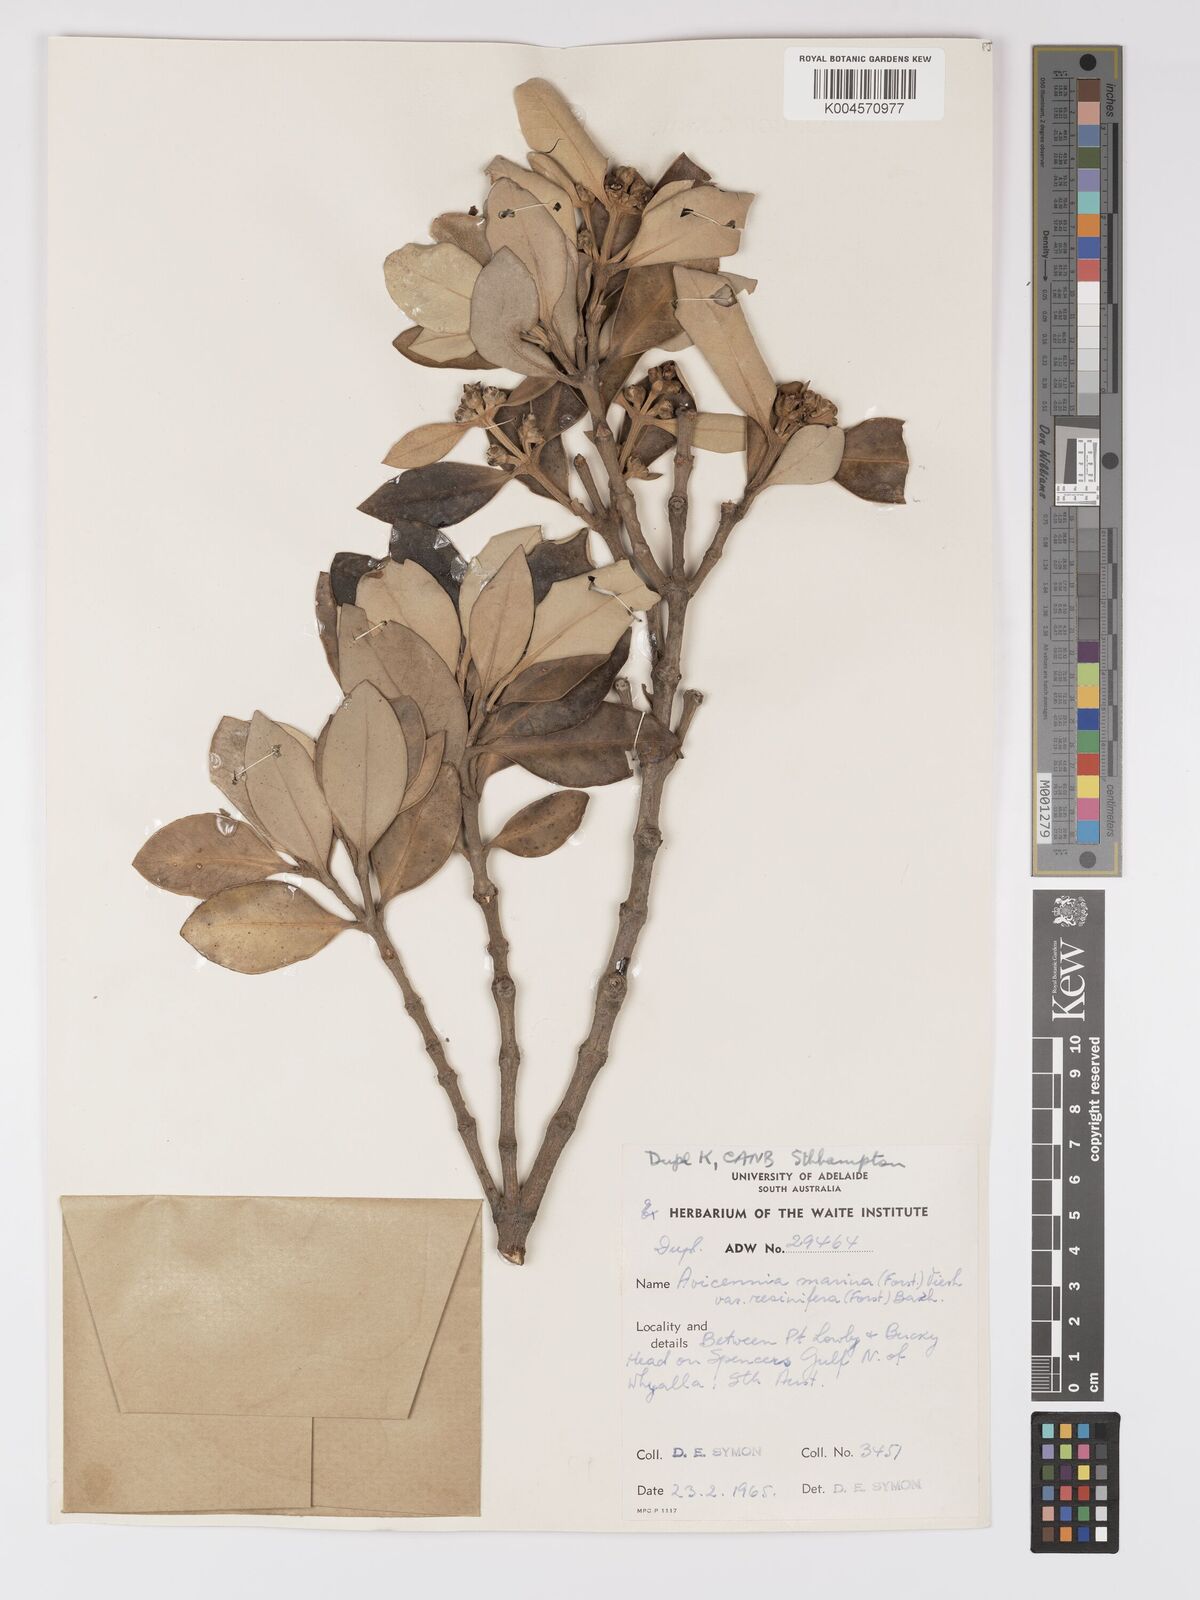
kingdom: Plantae
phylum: Tracheophyta
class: Magnoliopsida
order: Lamiales
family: Acanthaceae
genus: Avicennia
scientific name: Avicennia marina
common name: Gray mangrove
